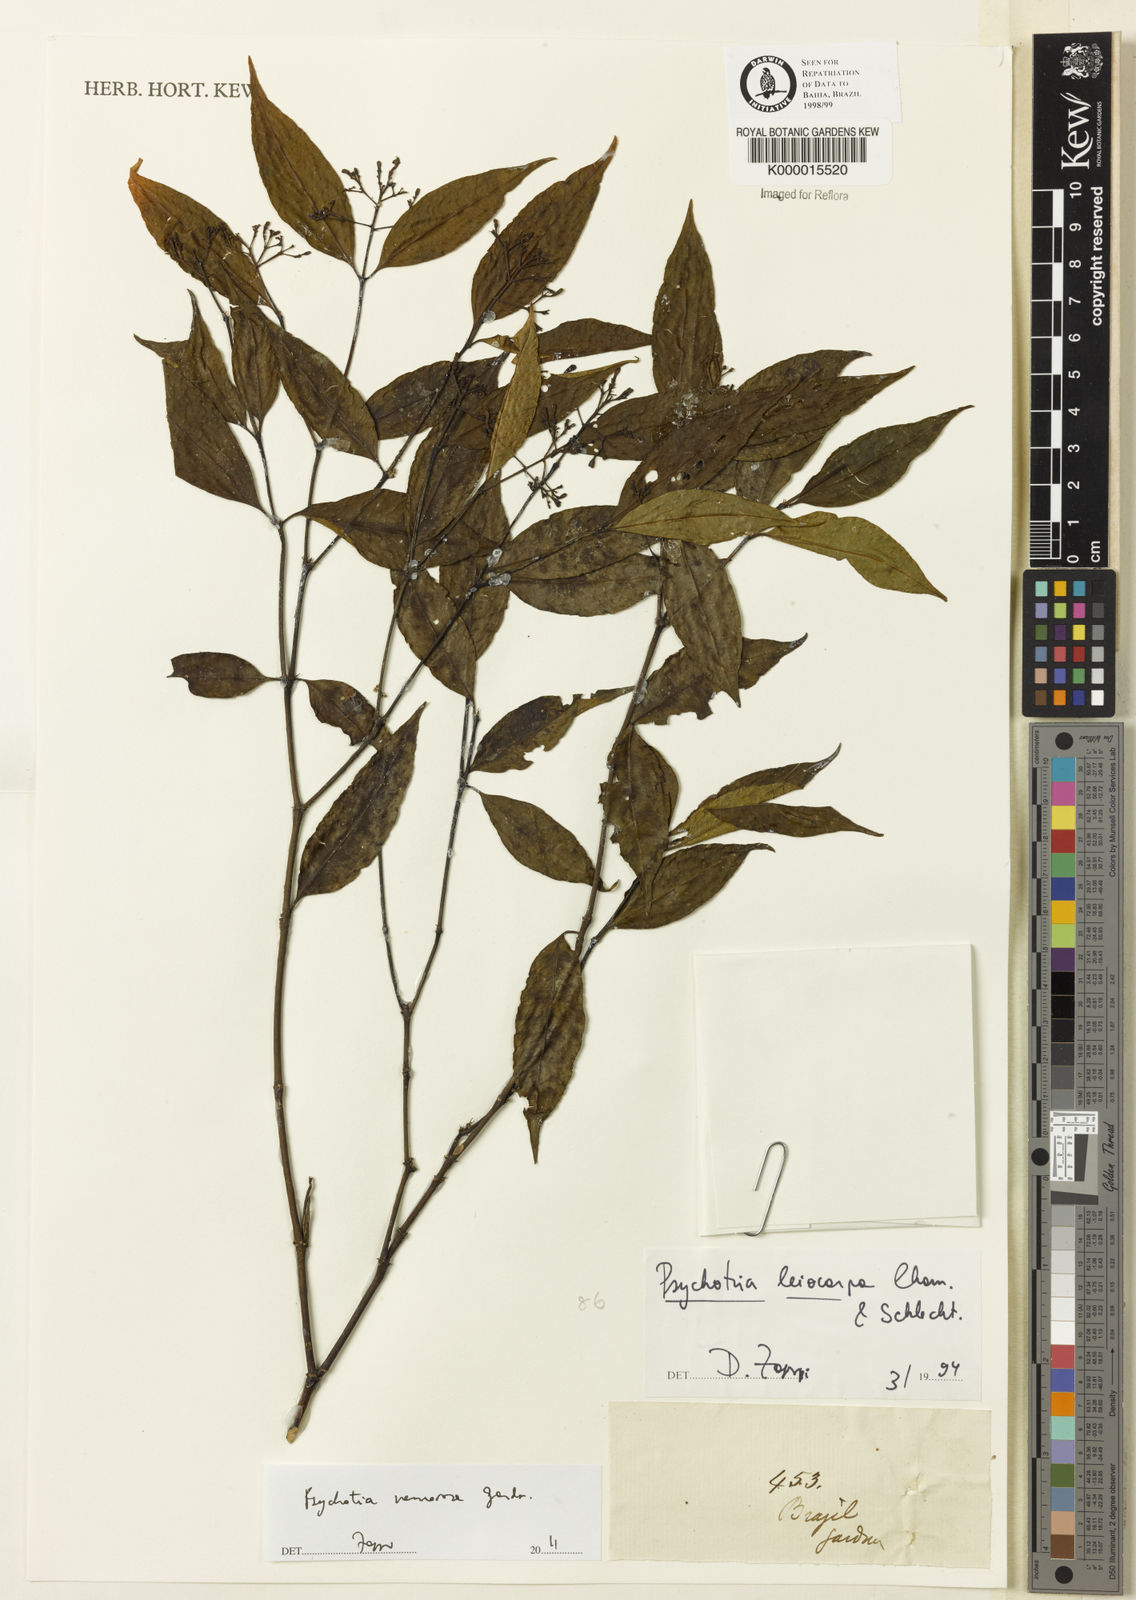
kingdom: Plantae
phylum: Tracheophyta
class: Magnoliopsida
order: Gentianales
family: Rubiaceae
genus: Psychotria
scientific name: Psychotria nemorosa
